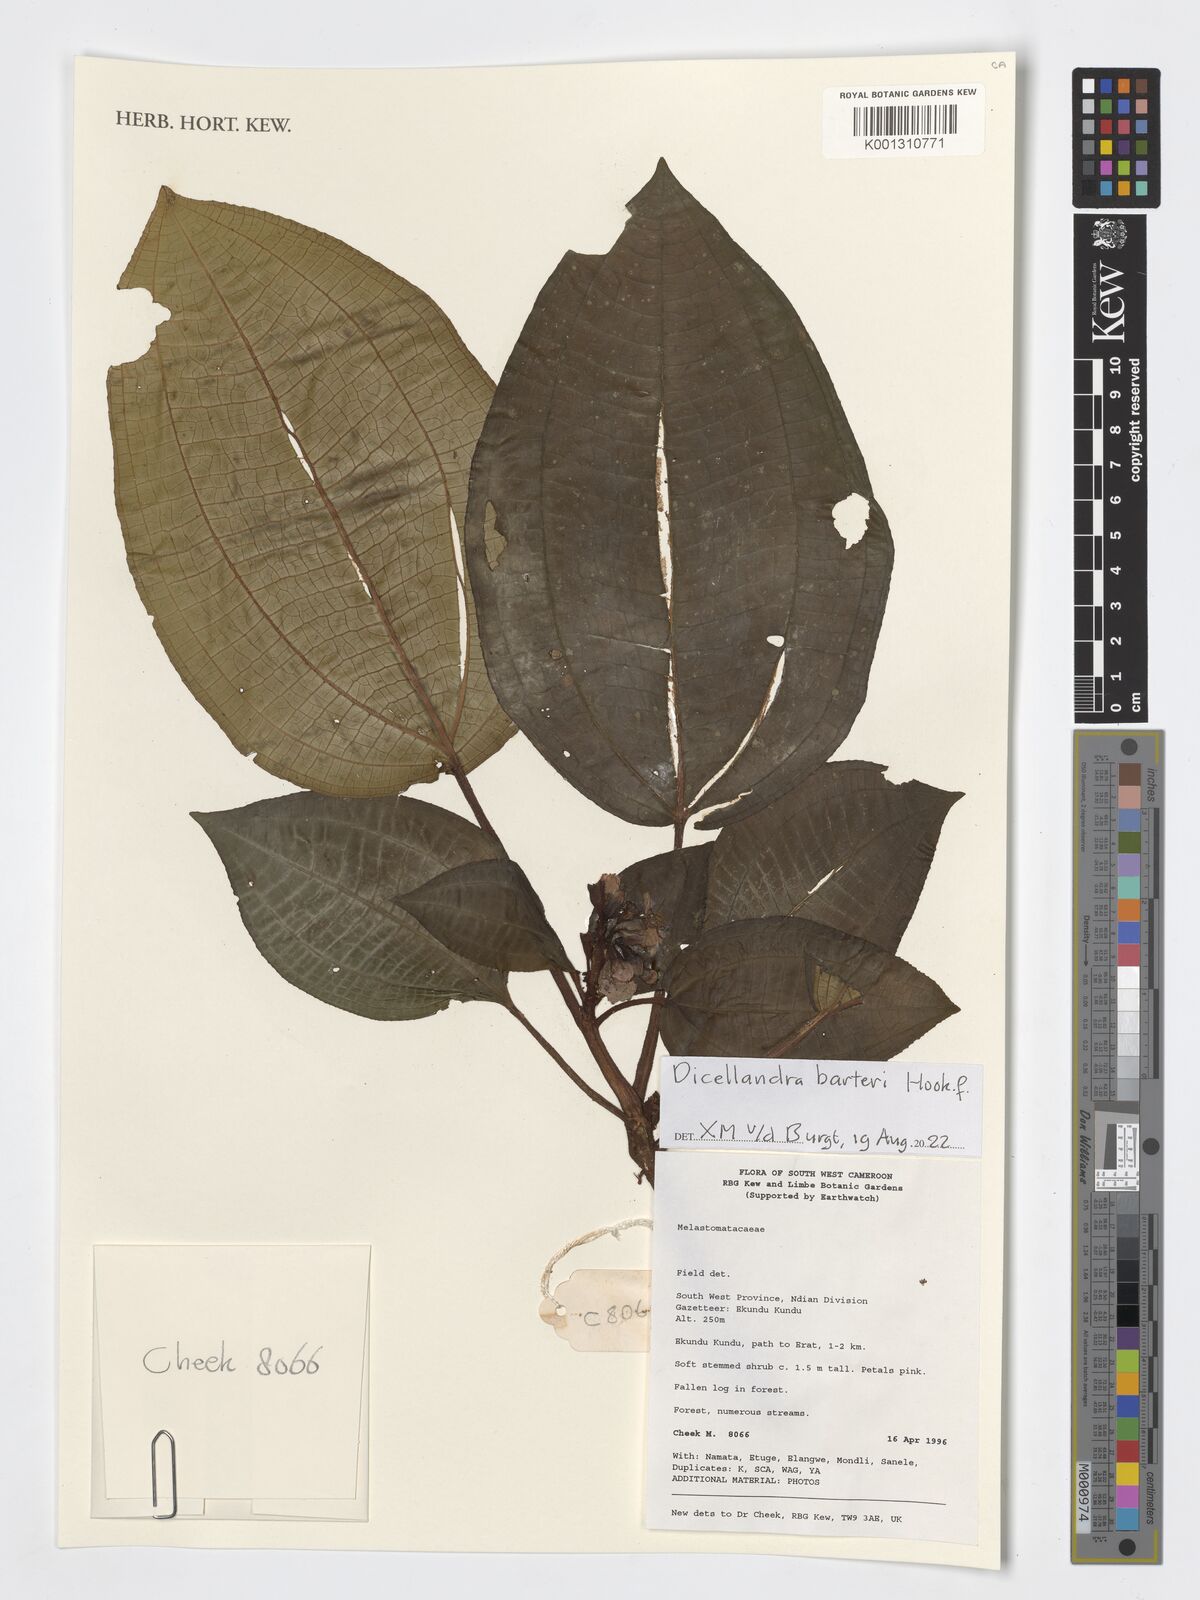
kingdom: Plantae
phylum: Tracheophyta
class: Magnoliopsida
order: Myrtales
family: Melastomataceae
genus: Dicellandra
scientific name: Dicellandra barteri
